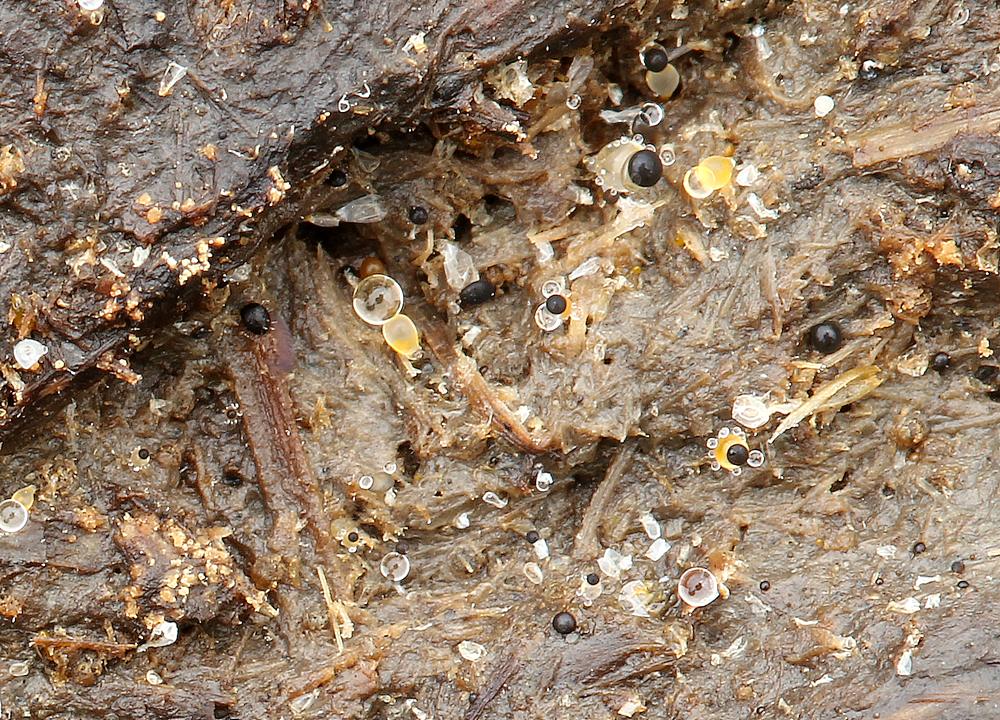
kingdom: Fungi
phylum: Mucoromycota
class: Mucoromycetes
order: Mucorales
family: Pilobolaceae
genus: Pilobolus
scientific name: Pilobolus
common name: boldkaster
